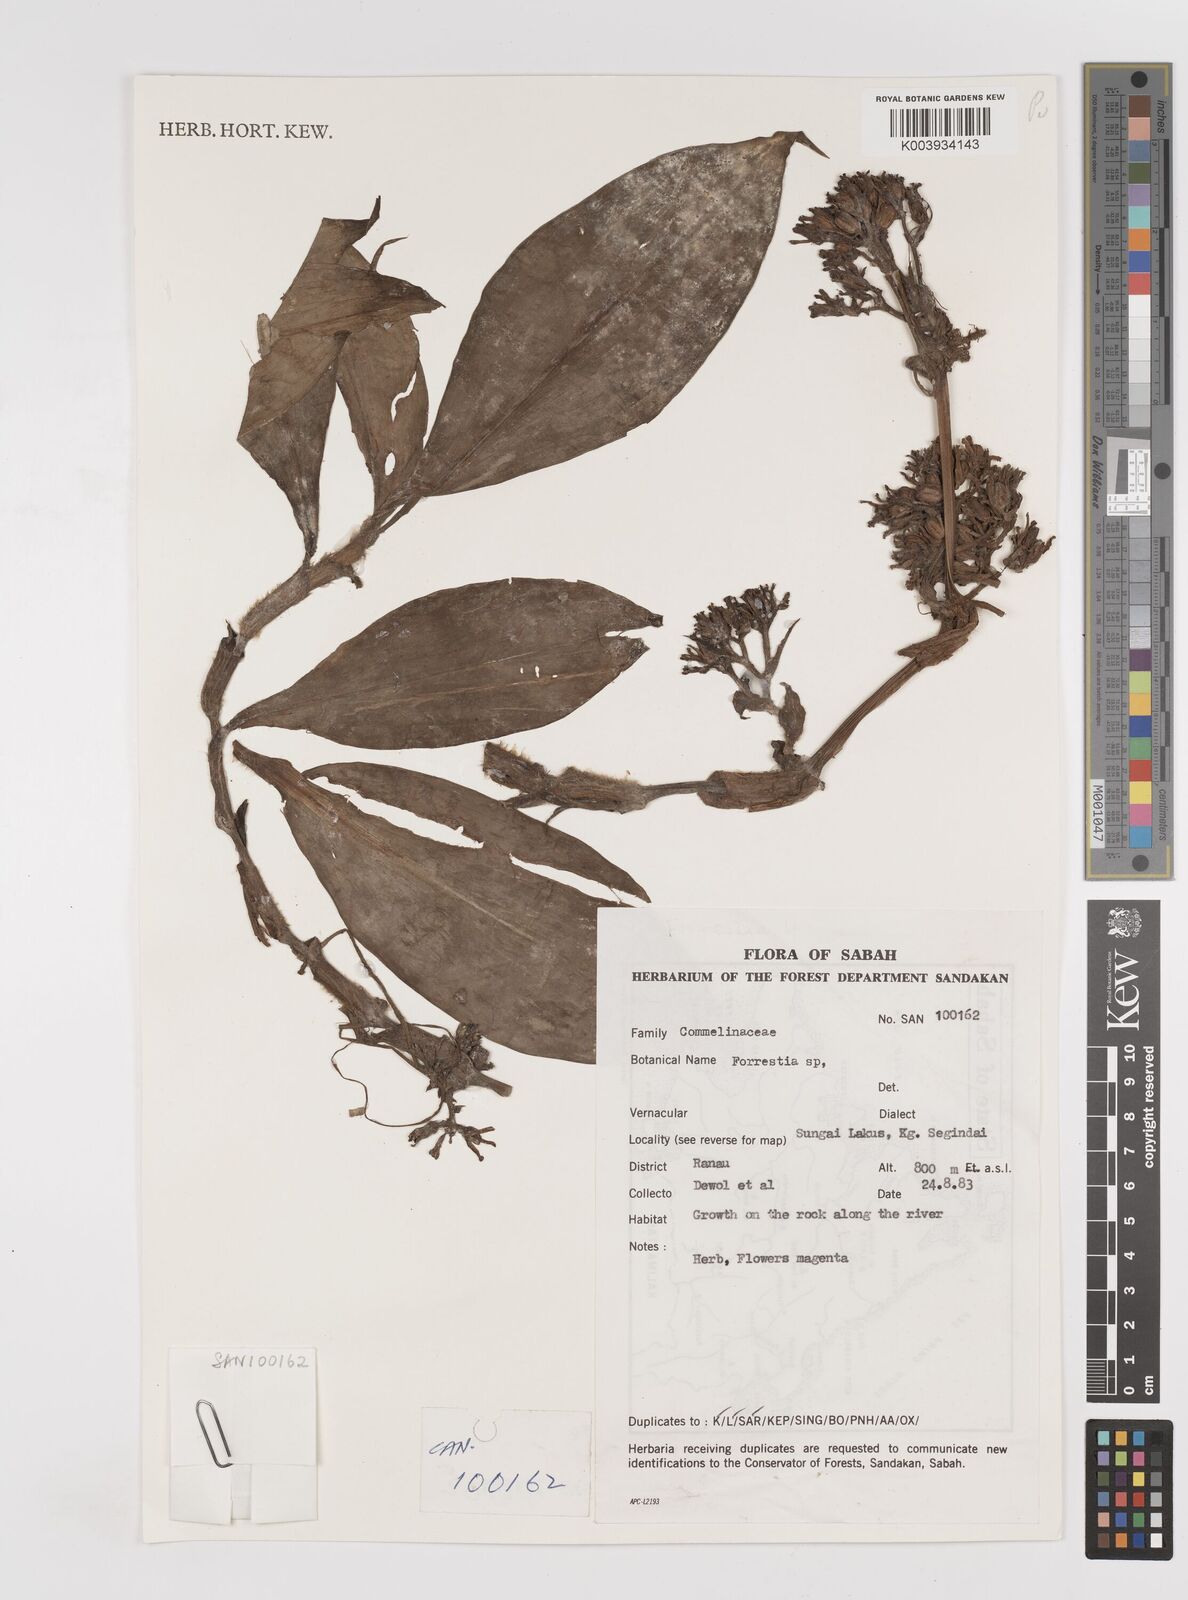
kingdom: Plantae
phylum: Tracheophyta
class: Liliopsida
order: Commelinales
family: Commelinaceae
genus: Amischotolype
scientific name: Amischotolype
